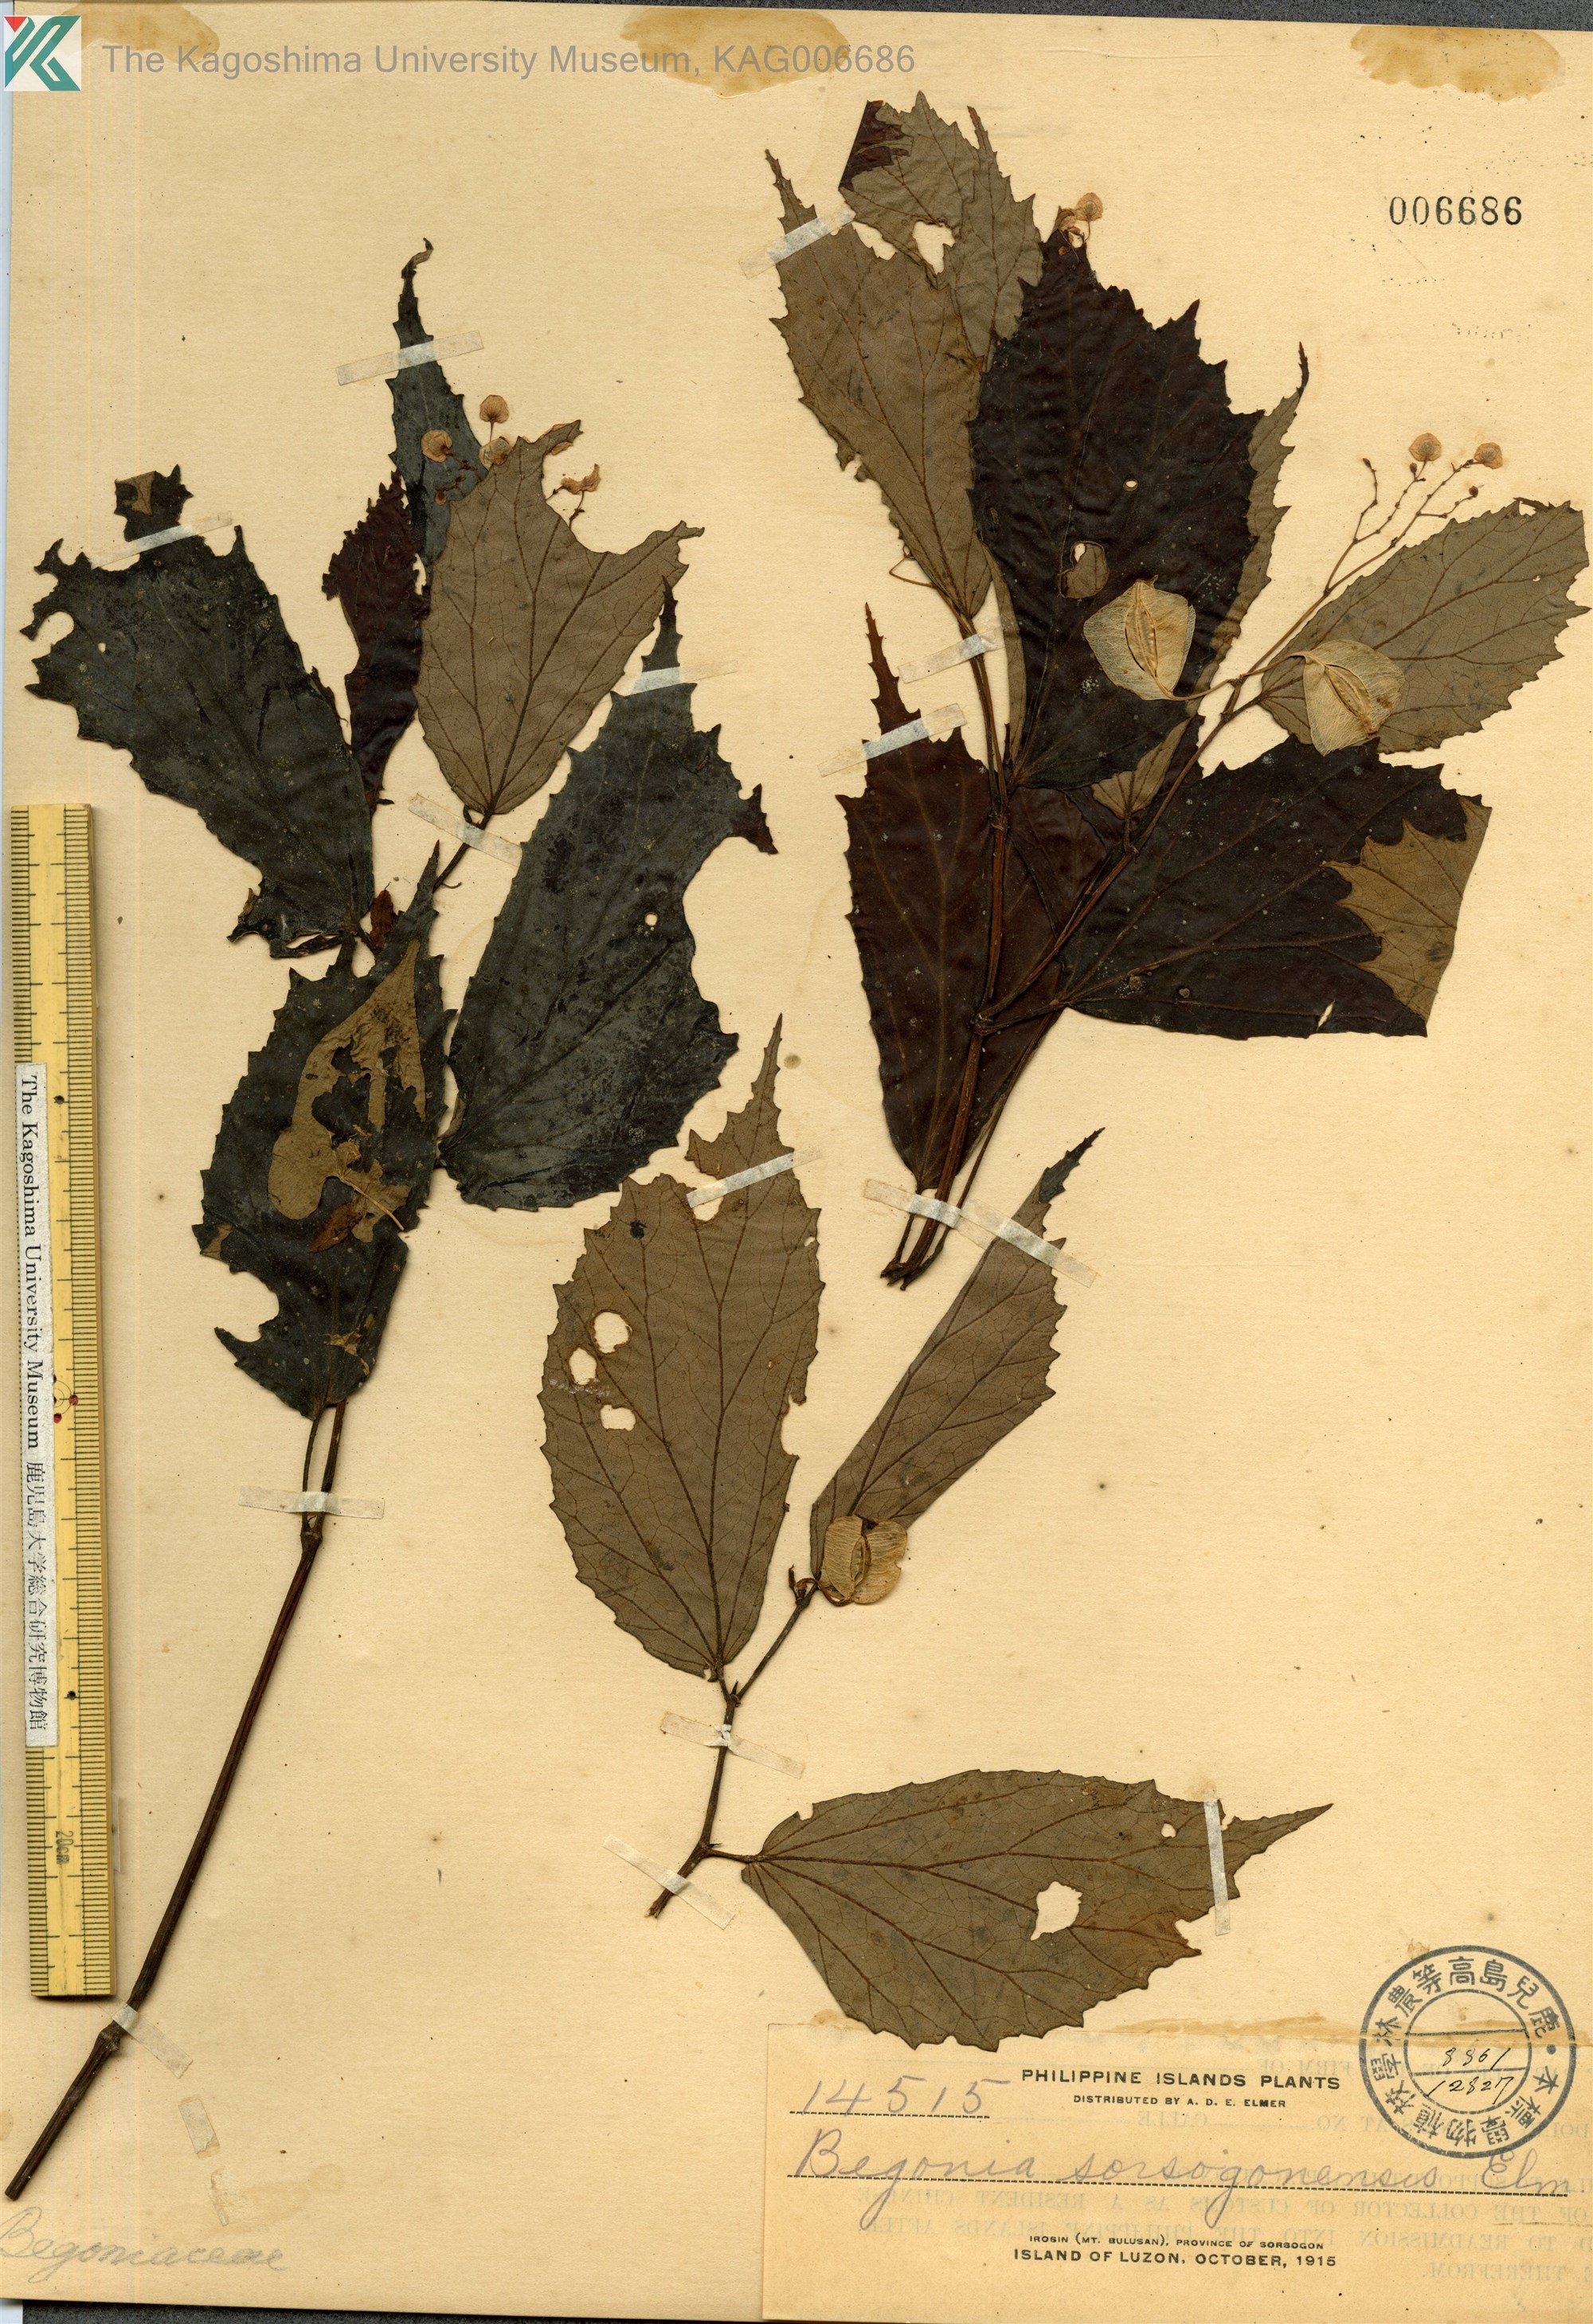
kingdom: Plantae
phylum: Tracheophyta
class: Magnoliopsida
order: Cucurbitales
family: Begoniaceae
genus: Begonia
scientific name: Begonia sorsogonensis
